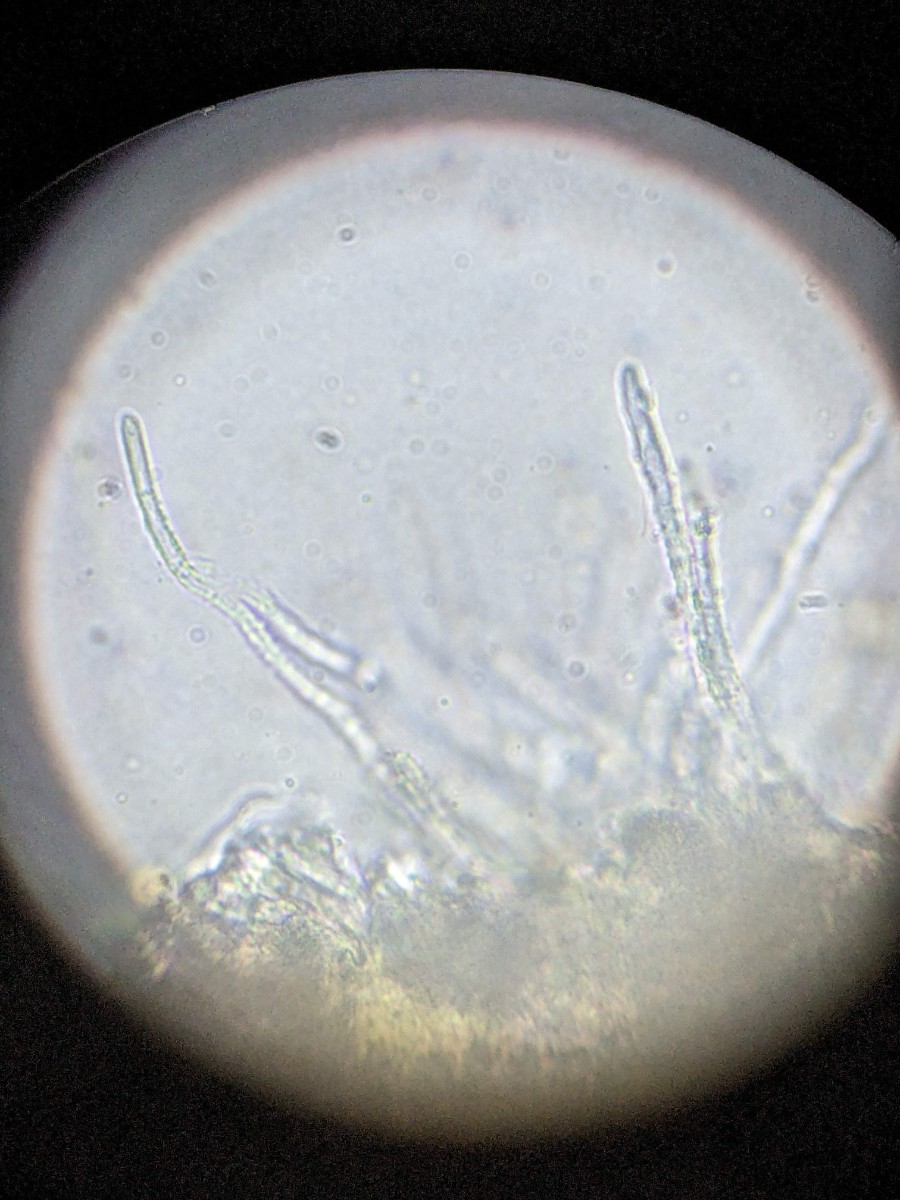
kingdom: Fungi
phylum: Ascomycota
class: Leotiomycetes
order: Helotiales
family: Lachnaceae
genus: Capitotricha
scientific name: Capitotricha bicolor
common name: prægtig frynseskive
